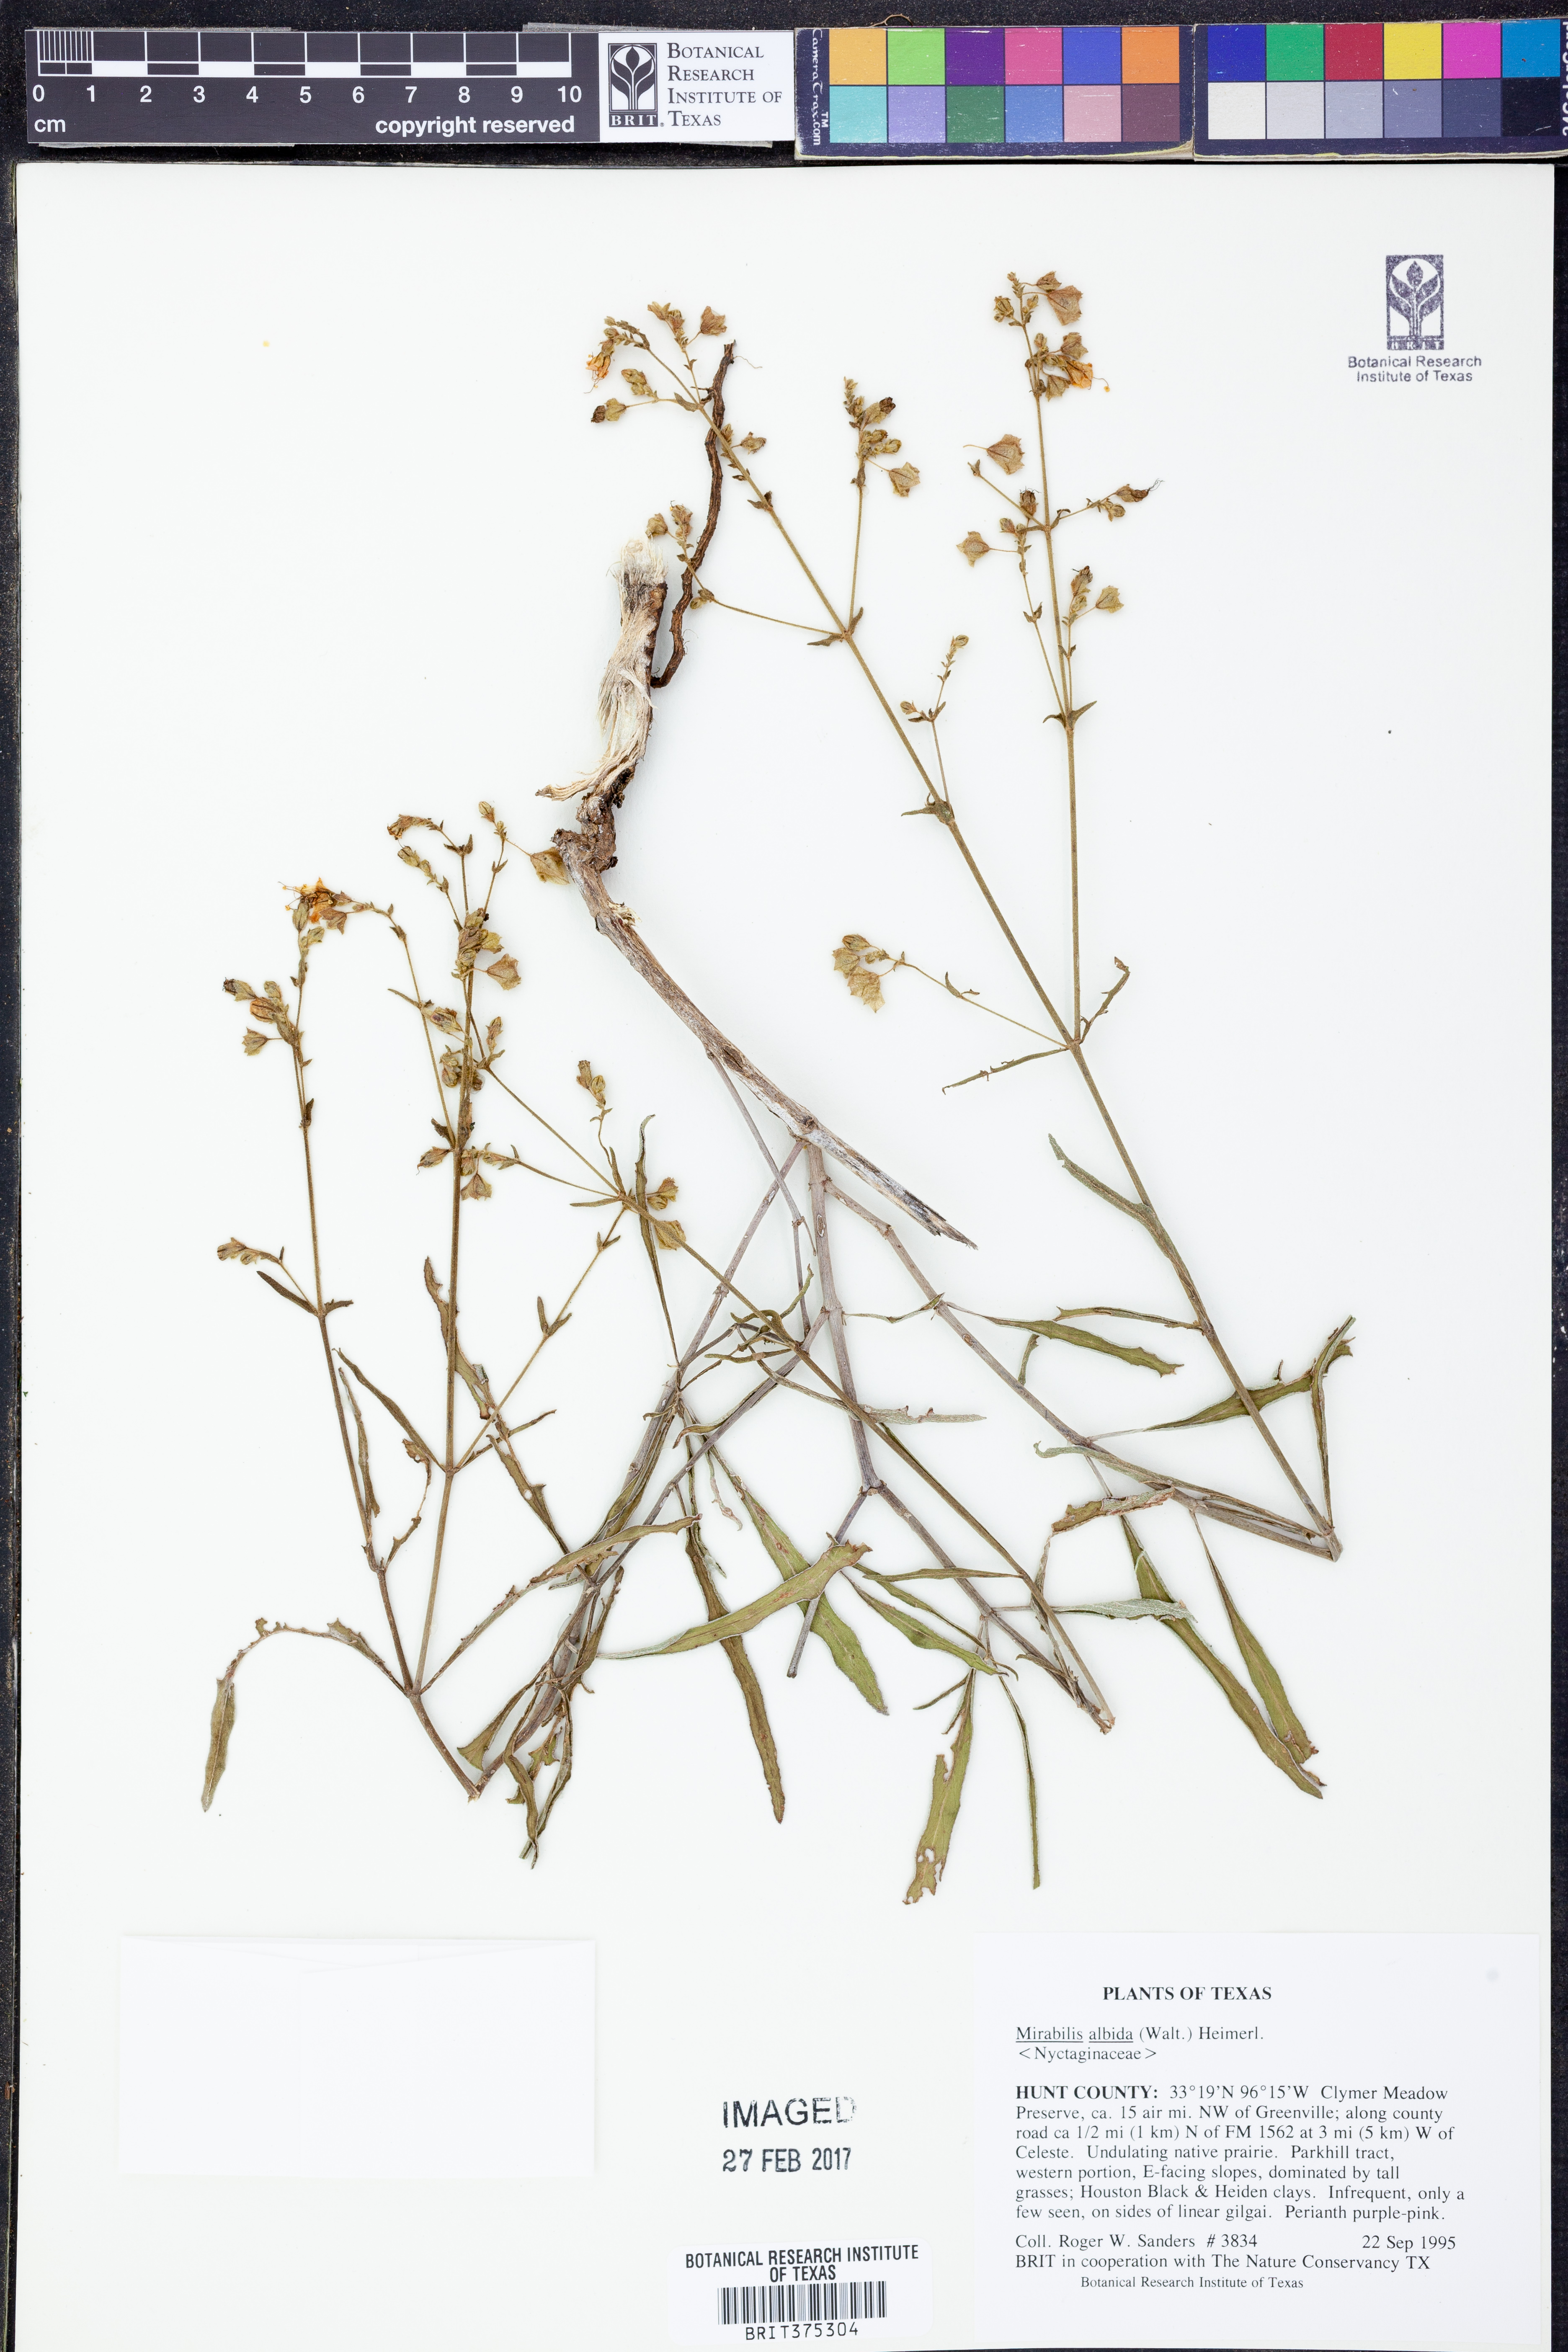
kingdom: Plantae
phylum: Tracheophyta
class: Magnoliopsida
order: Caryophyllales
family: Nyctaginaceae
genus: Mirabilis
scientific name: Mirabilis albida
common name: Hairy four-o'clock
